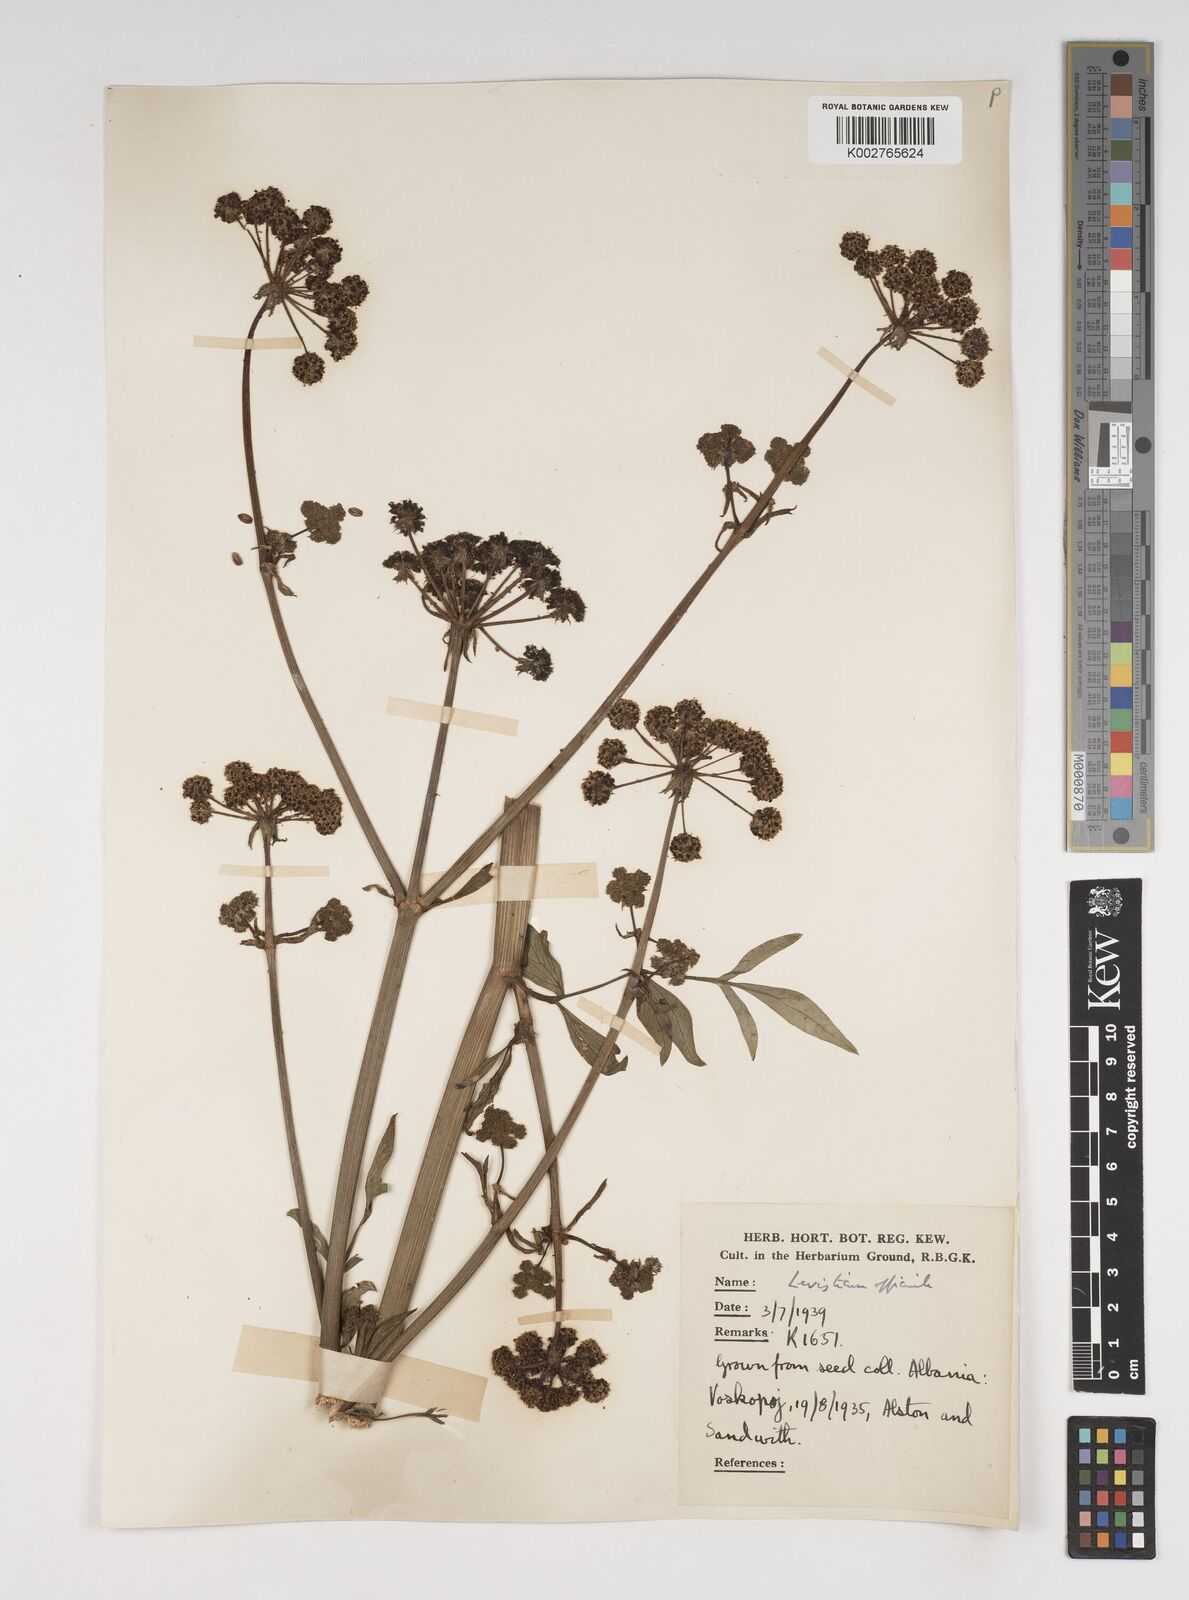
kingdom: Plantae
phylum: Tracheophyta
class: Magnoliopsida
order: Apiales
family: Apiaceae
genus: Levisticum
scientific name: Levisticum officinale
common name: Lovage
